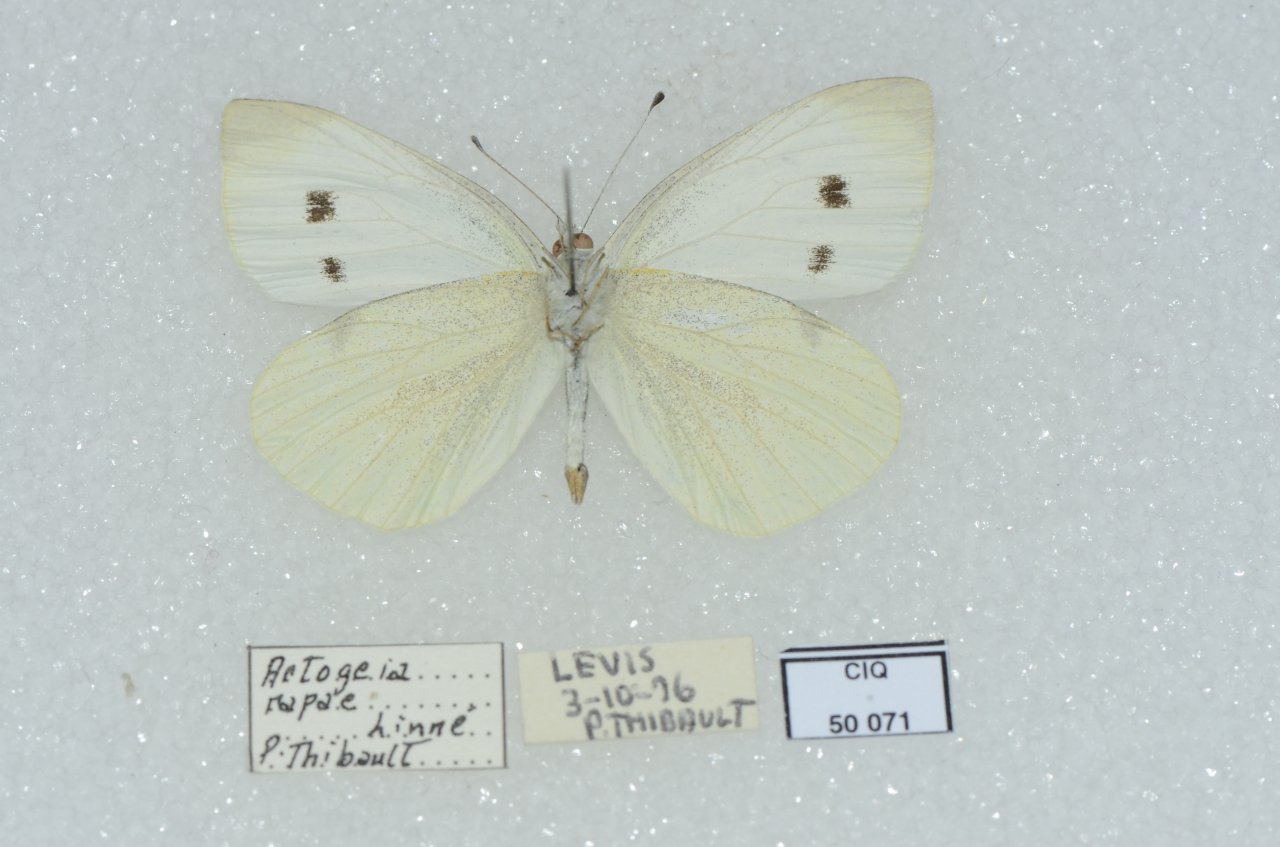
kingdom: Animalia
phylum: Arthropoda
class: Insecta
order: Lepidoptera
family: Pieridae
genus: Pieris
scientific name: Pieris rapae
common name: Cabbage White
